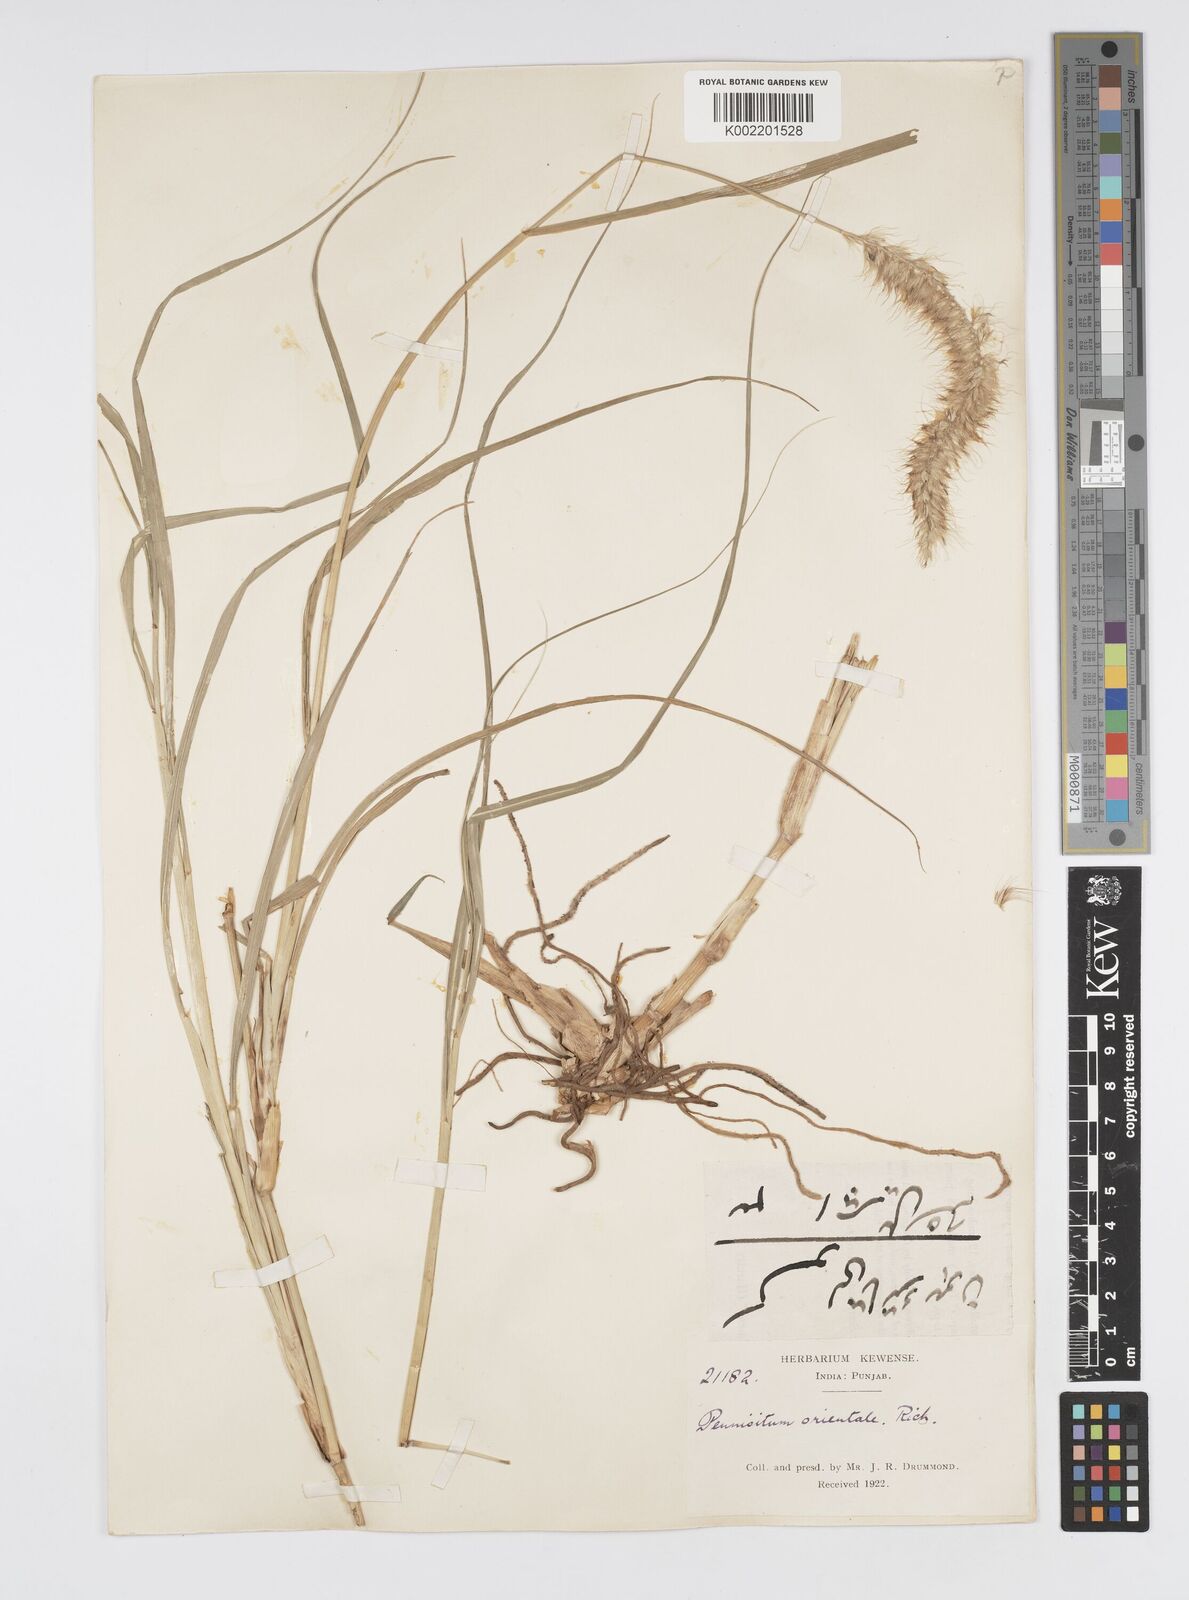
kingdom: Plantae
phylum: Tracheophyta
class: Liliopsida
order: Poales
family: Poaceae
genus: Cenchrus
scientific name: Cenchrus orientalis
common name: Oriental fountain grass
